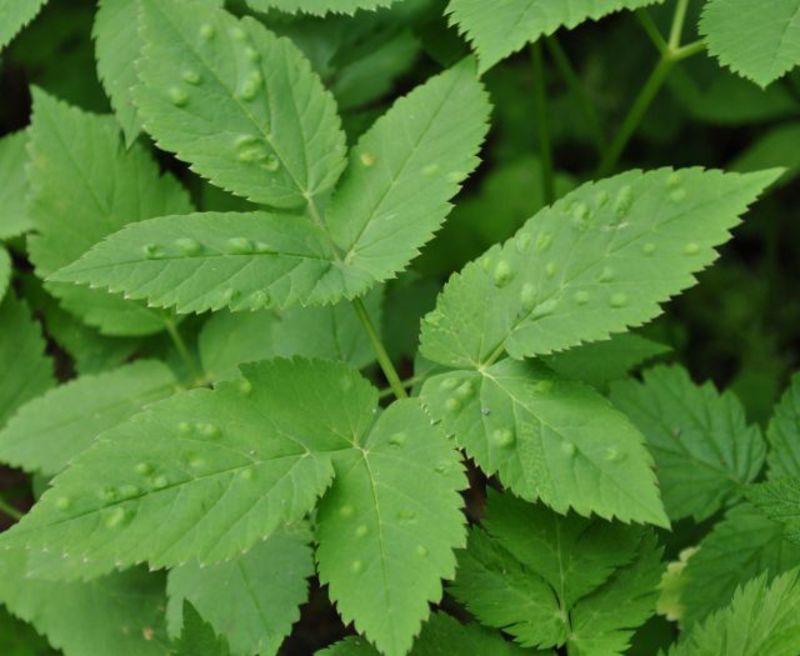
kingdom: Animalia
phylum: Arthropoda
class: Insecta
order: Hemiptera
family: Triozidae
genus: Trioza
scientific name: Trioza flavipennis
